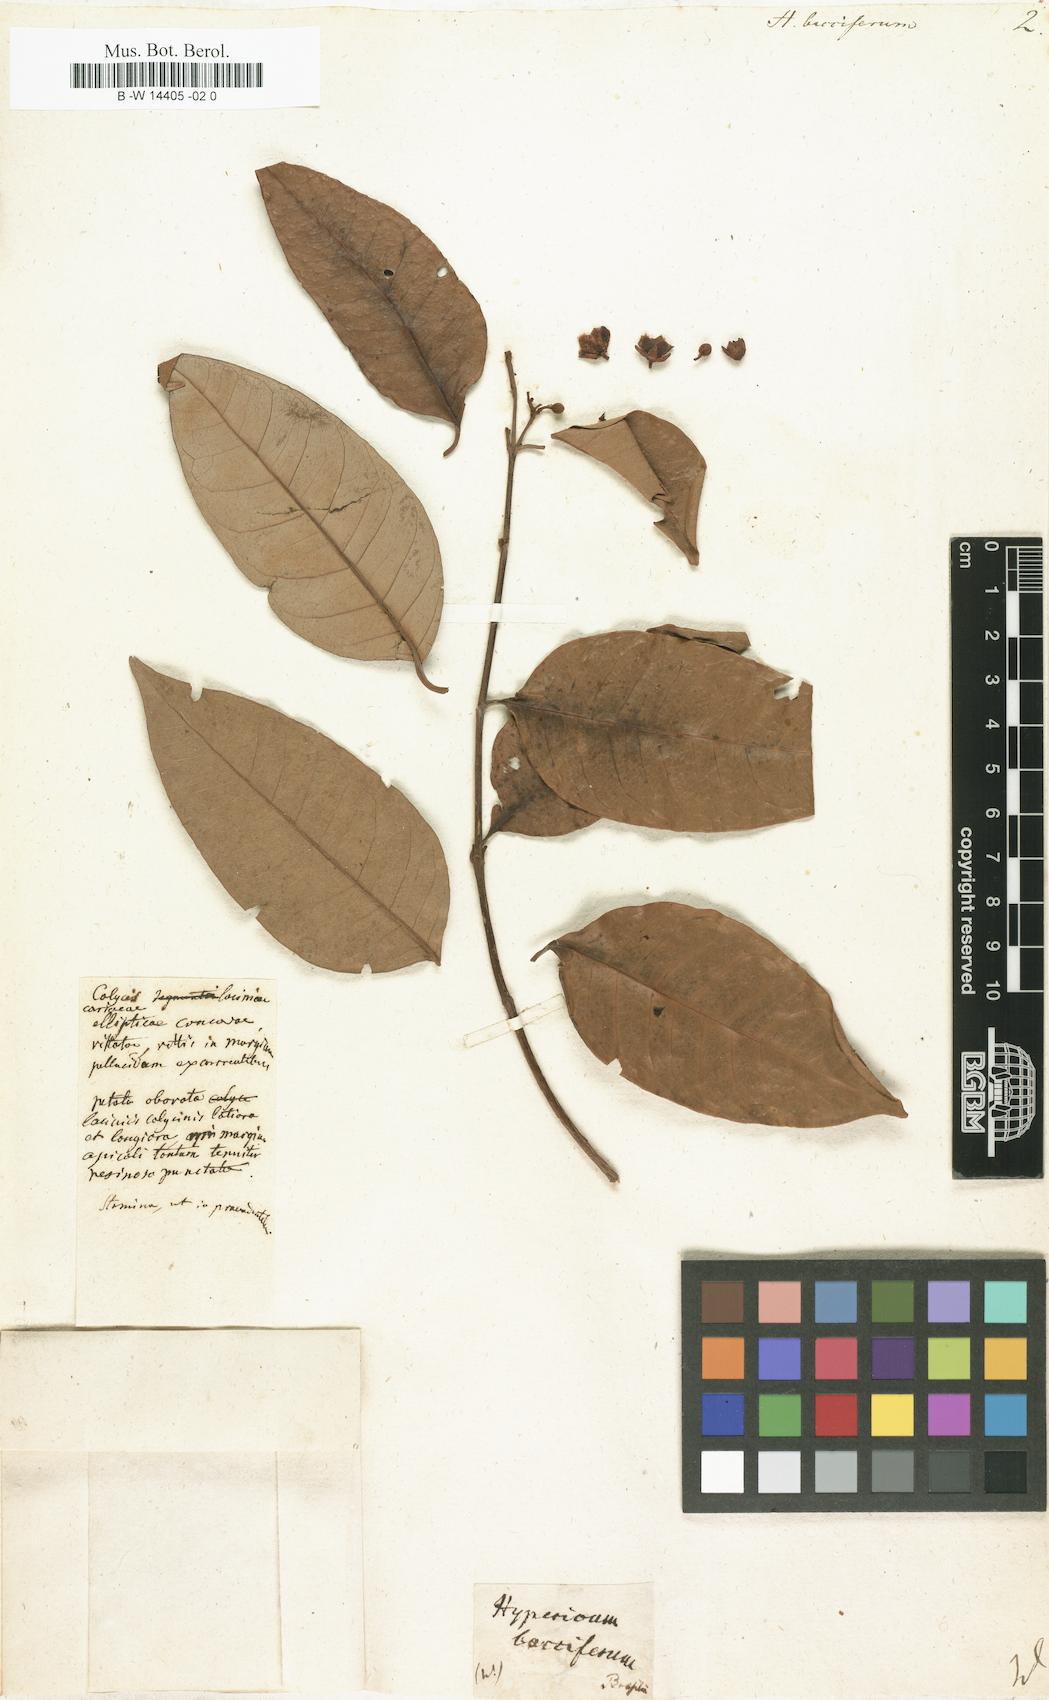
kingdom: Plantae
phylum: Tracheophyta
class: Magnoliopsida
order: Malpighiales
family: Hypericaceae
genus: Hypericum
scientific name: Hypericum bacciferum
